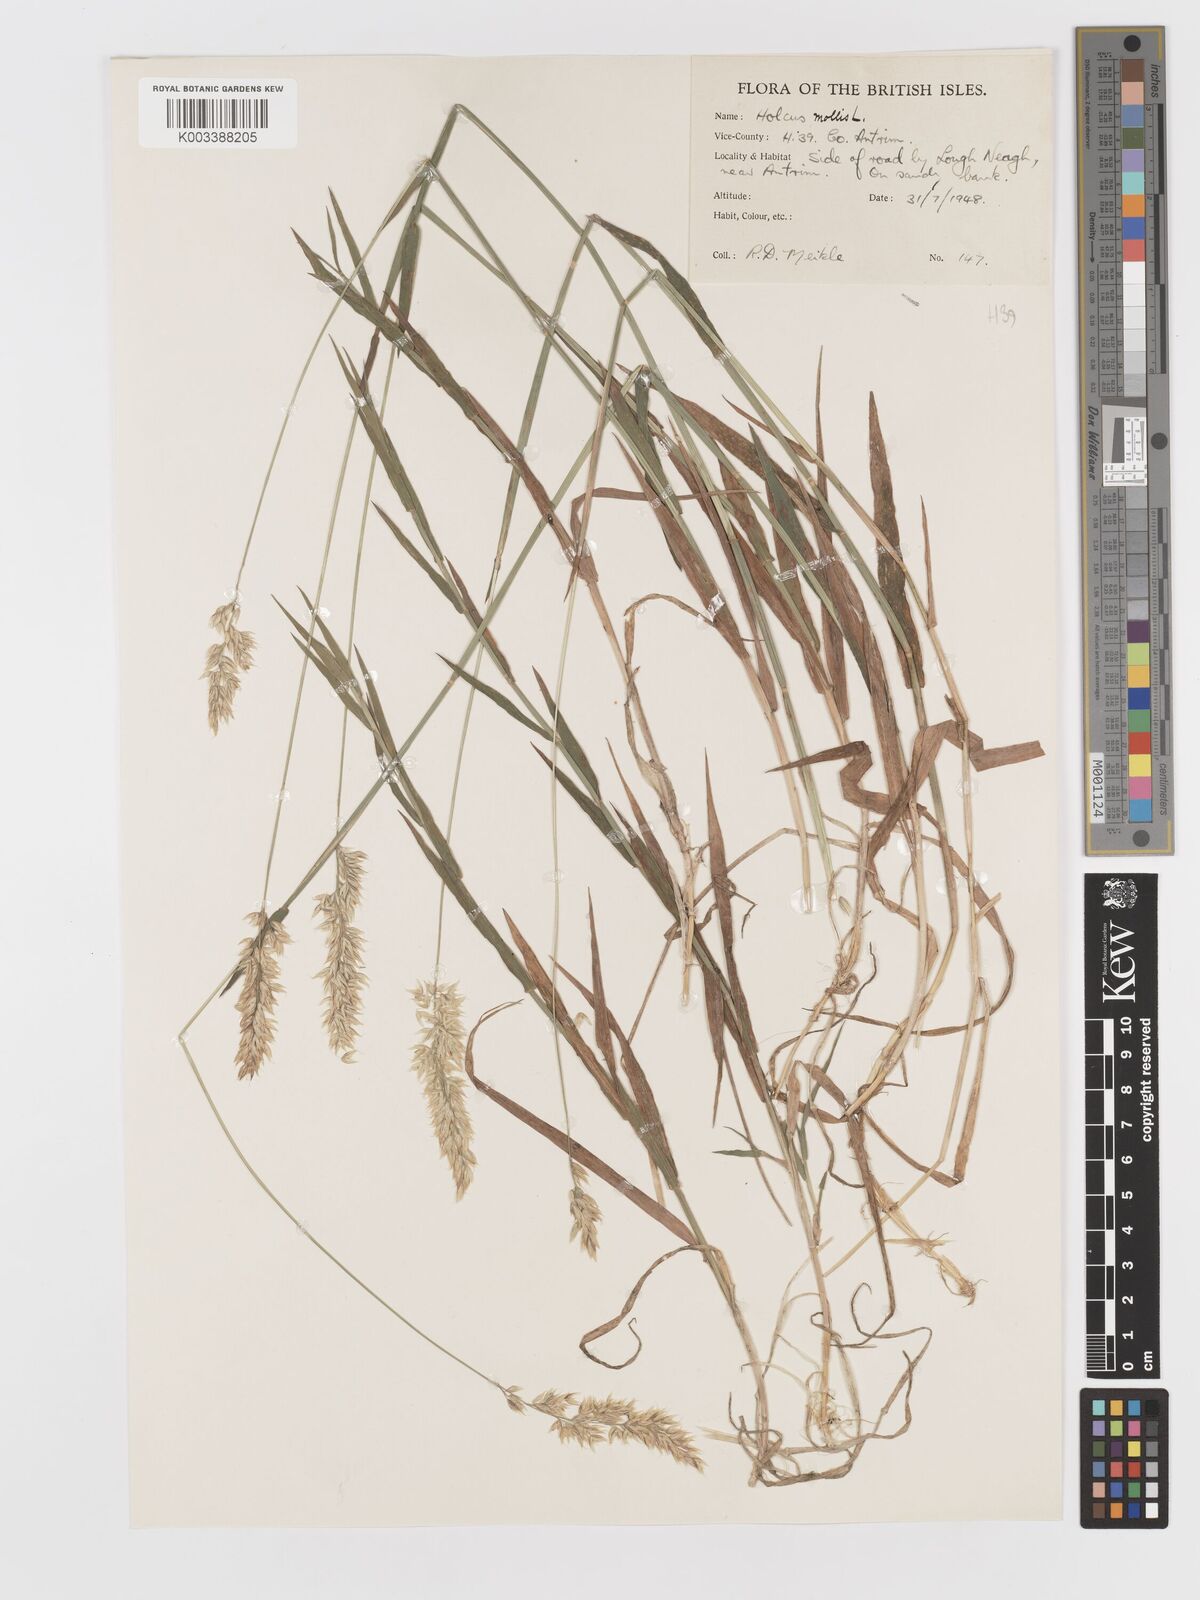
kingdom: Plantae
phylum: Tracheophyta
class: Liliopsida
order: Poales
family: Poaceae
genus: Holcus
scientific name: Holcus mollis
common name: Creeping velvetgrass
